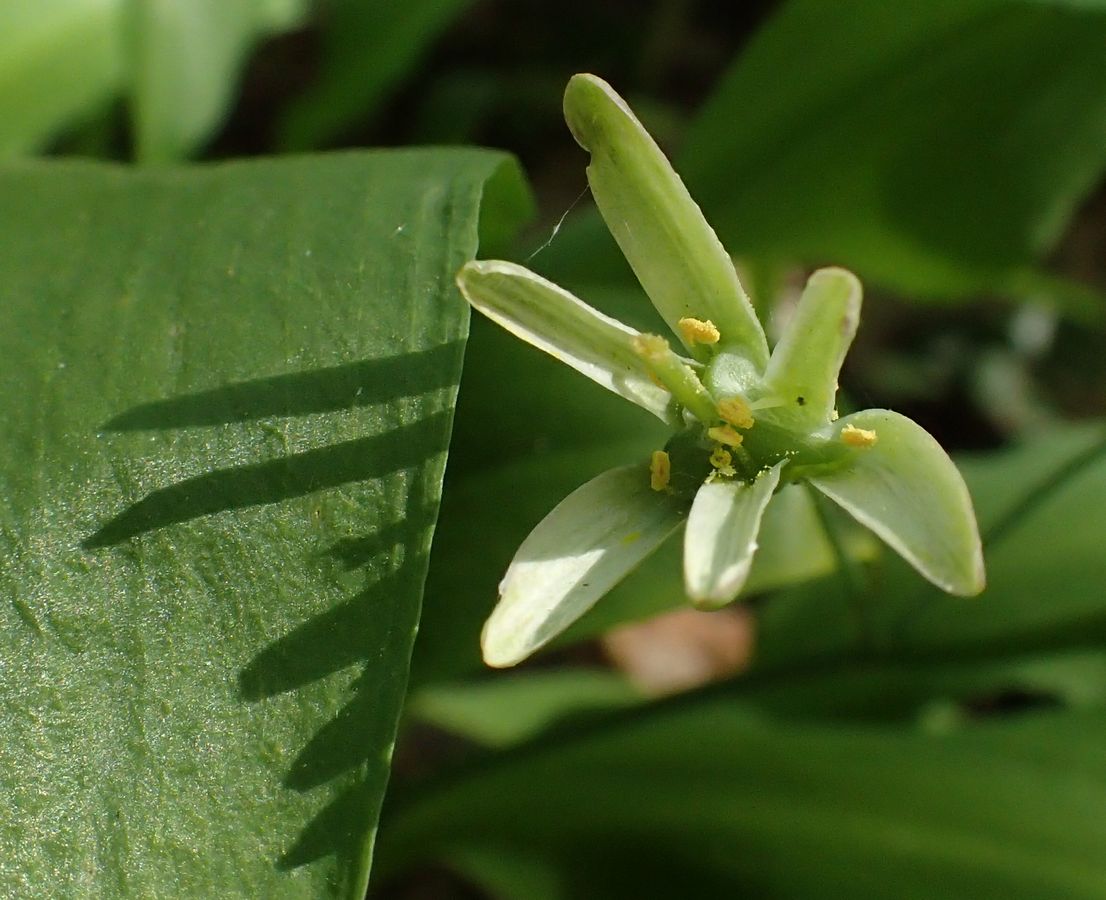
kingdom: Plantae
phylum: Tracheophyta
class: Liliopsida
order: Liliales
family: Liliaceae
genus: Gagea
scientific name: Gagea lutea
